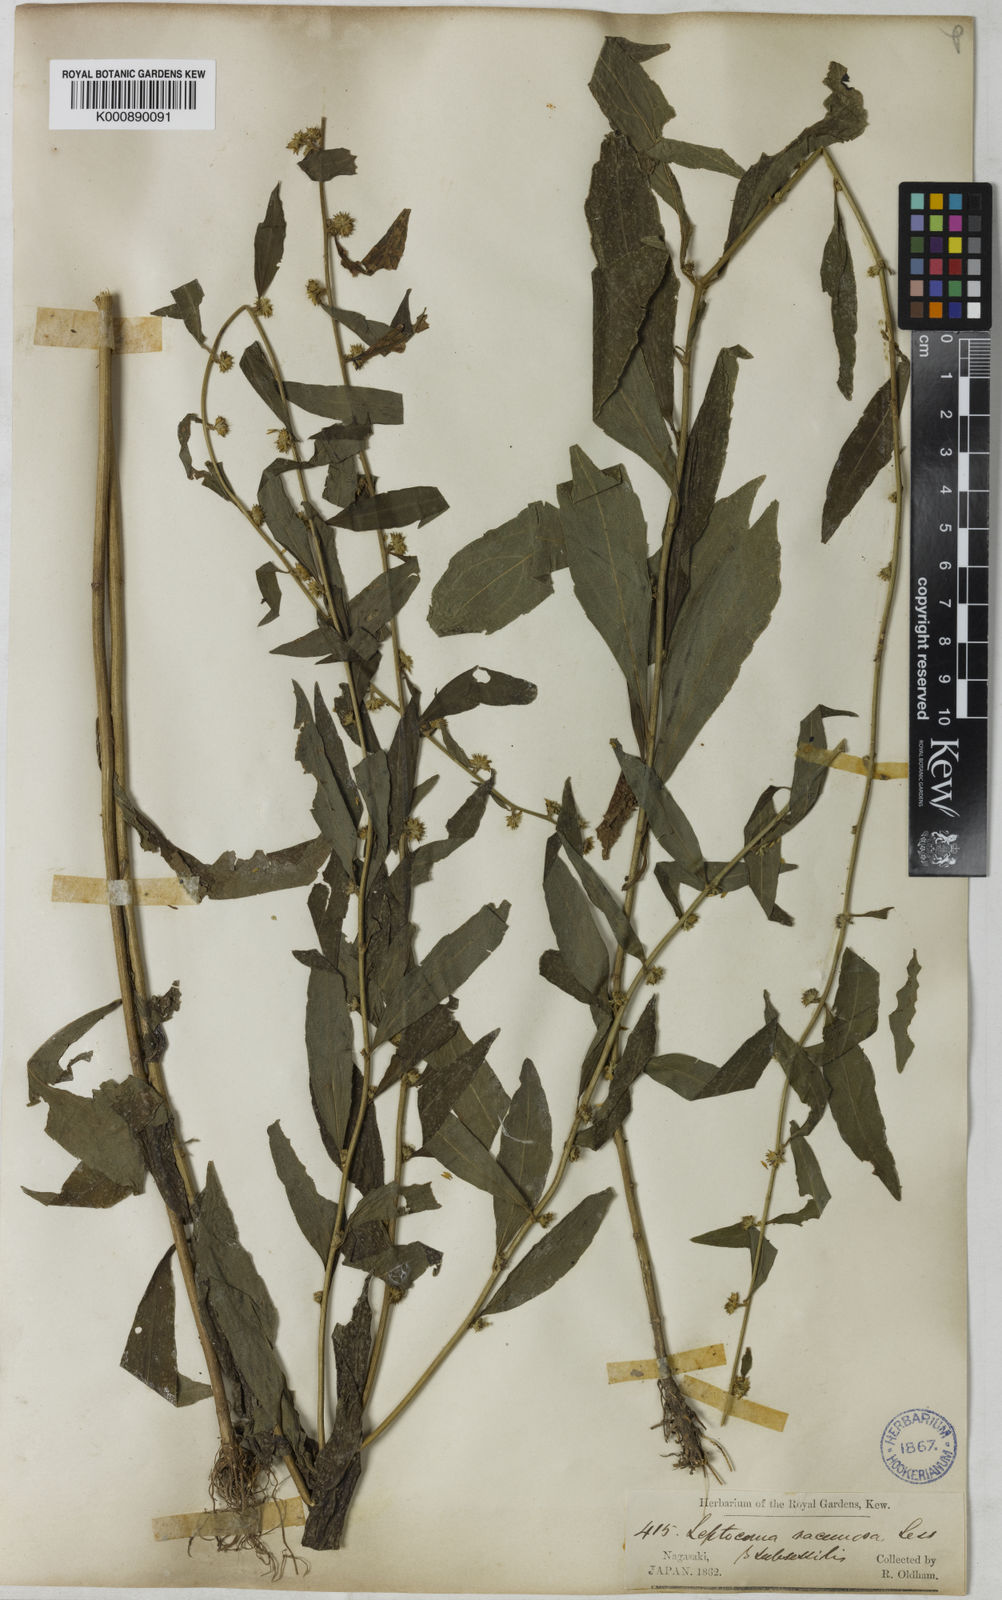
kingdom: Plantae
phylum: Tracheophyta
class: Magnoliopsida
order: Asterales
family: Asteraceae
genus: Rhynchospermum
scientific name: Rhynchospermum verticillatum
